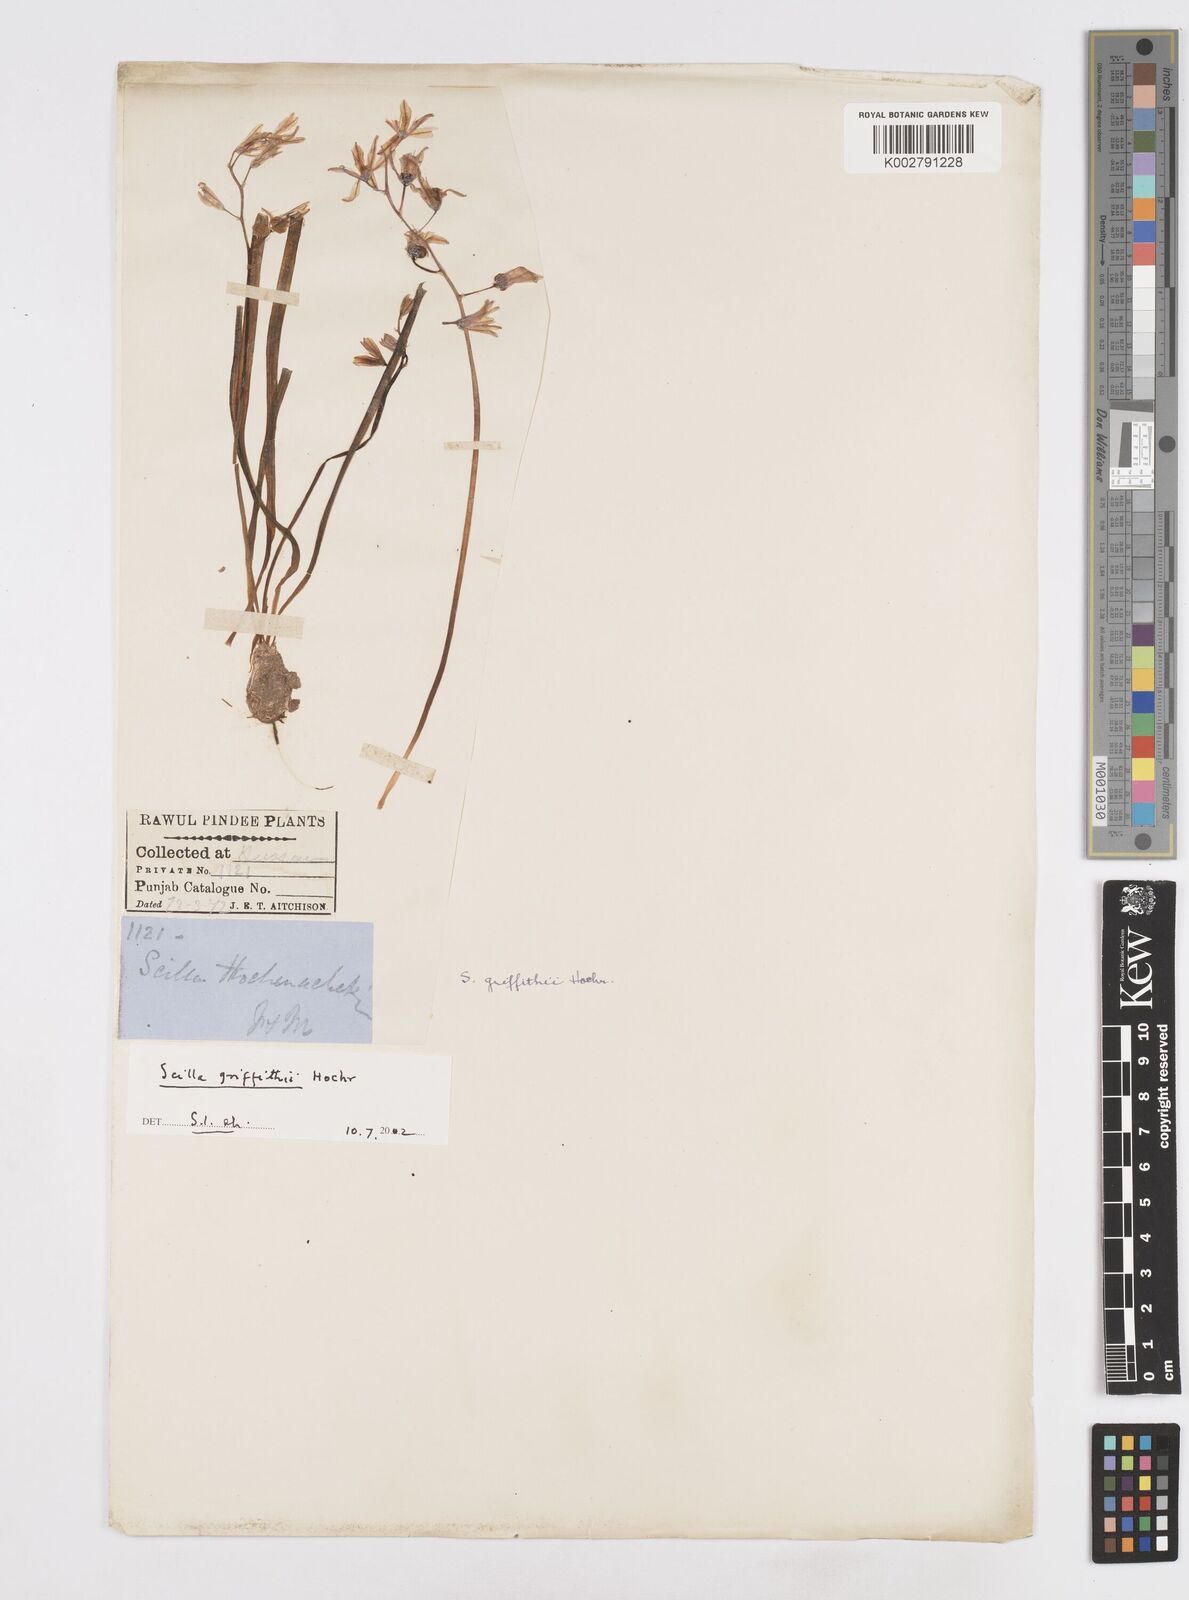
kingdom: Plantae
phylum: Tracheophyta
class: Liliopsida
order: Asparagales
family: Asparagaceae
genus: Scilla
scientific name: Scilla bifolia
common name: Alpine squill
